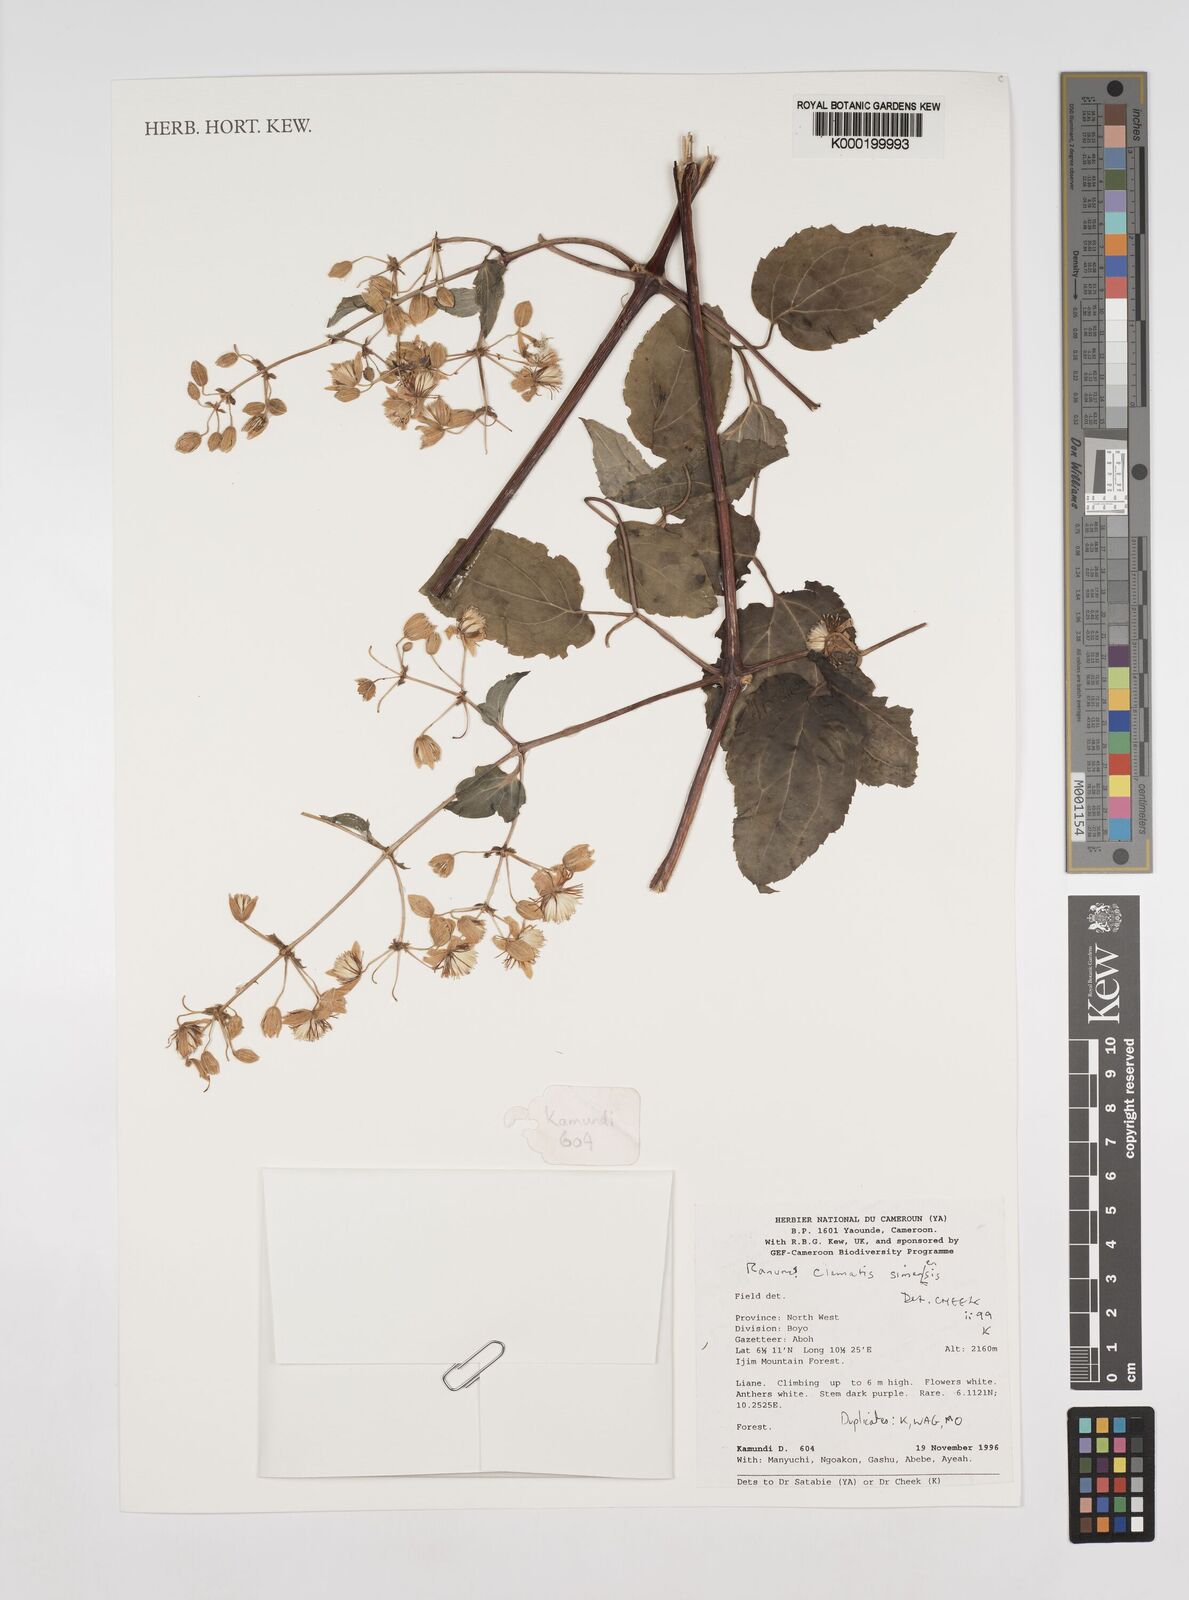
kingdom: Plantae
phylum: Tracheophyta
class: Magnoliopsida
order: Ranunculales
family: Ranunculaceae
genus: Clematis
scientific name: Clematis simensis
